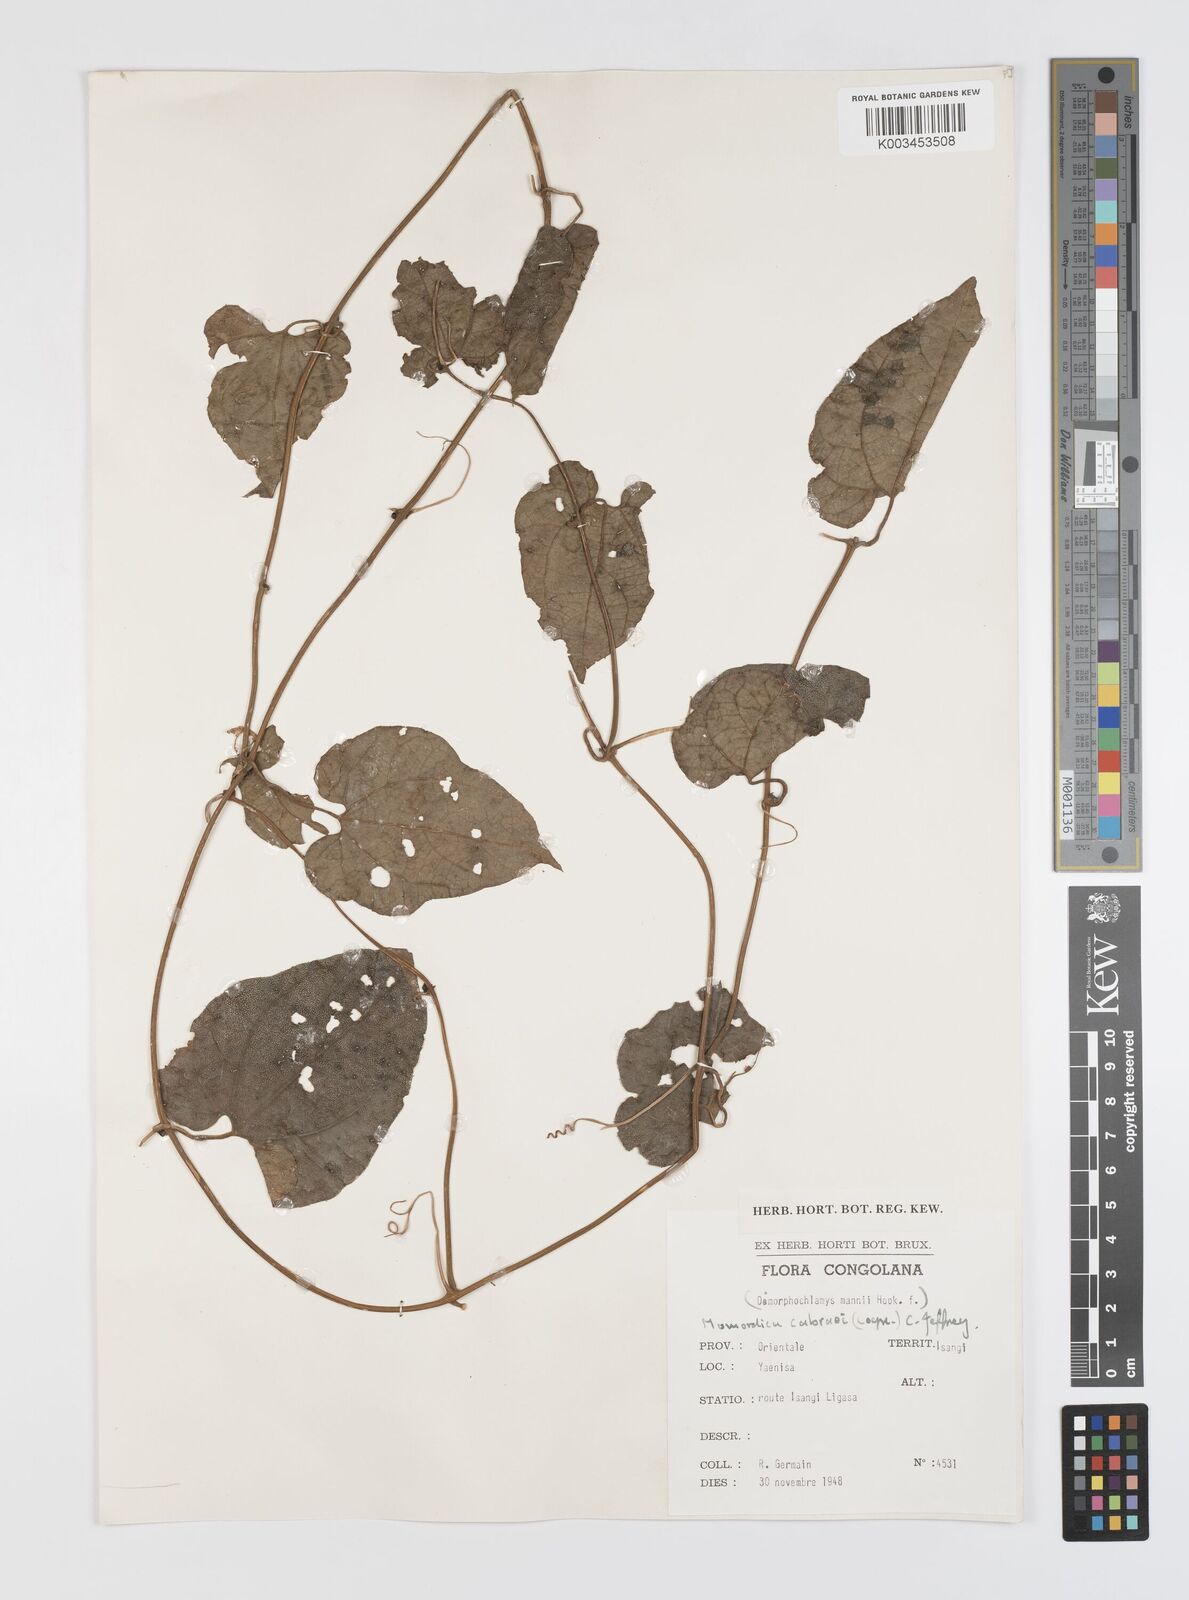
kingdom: Plantae
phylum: Tracheophyta
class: Magnoliopsida
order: Cucurbitales
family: Cucurbitaceae
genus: Momordica
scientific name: Momordica cabrae
